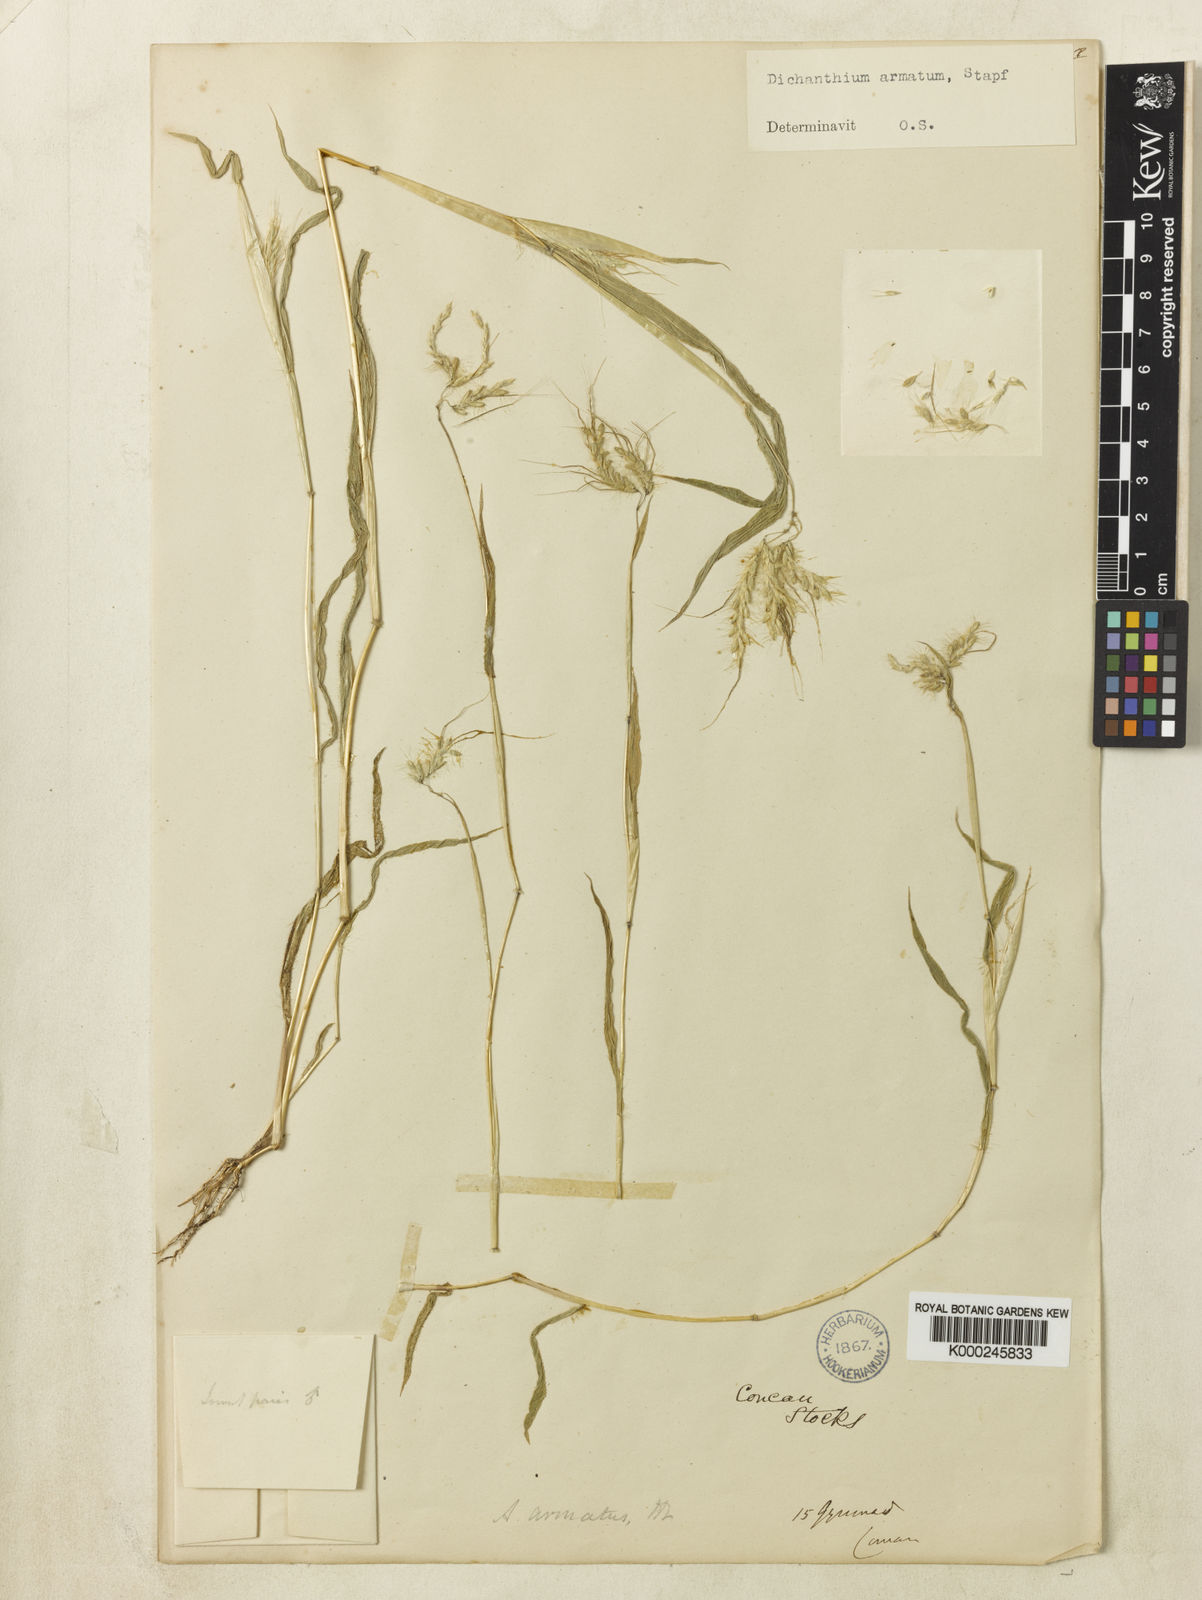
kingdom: Plantae
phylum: Tracheophyta
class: Liliopsida
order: Poales
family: Poaceae
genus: Dichanthium
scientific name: Dichanthium armatum
